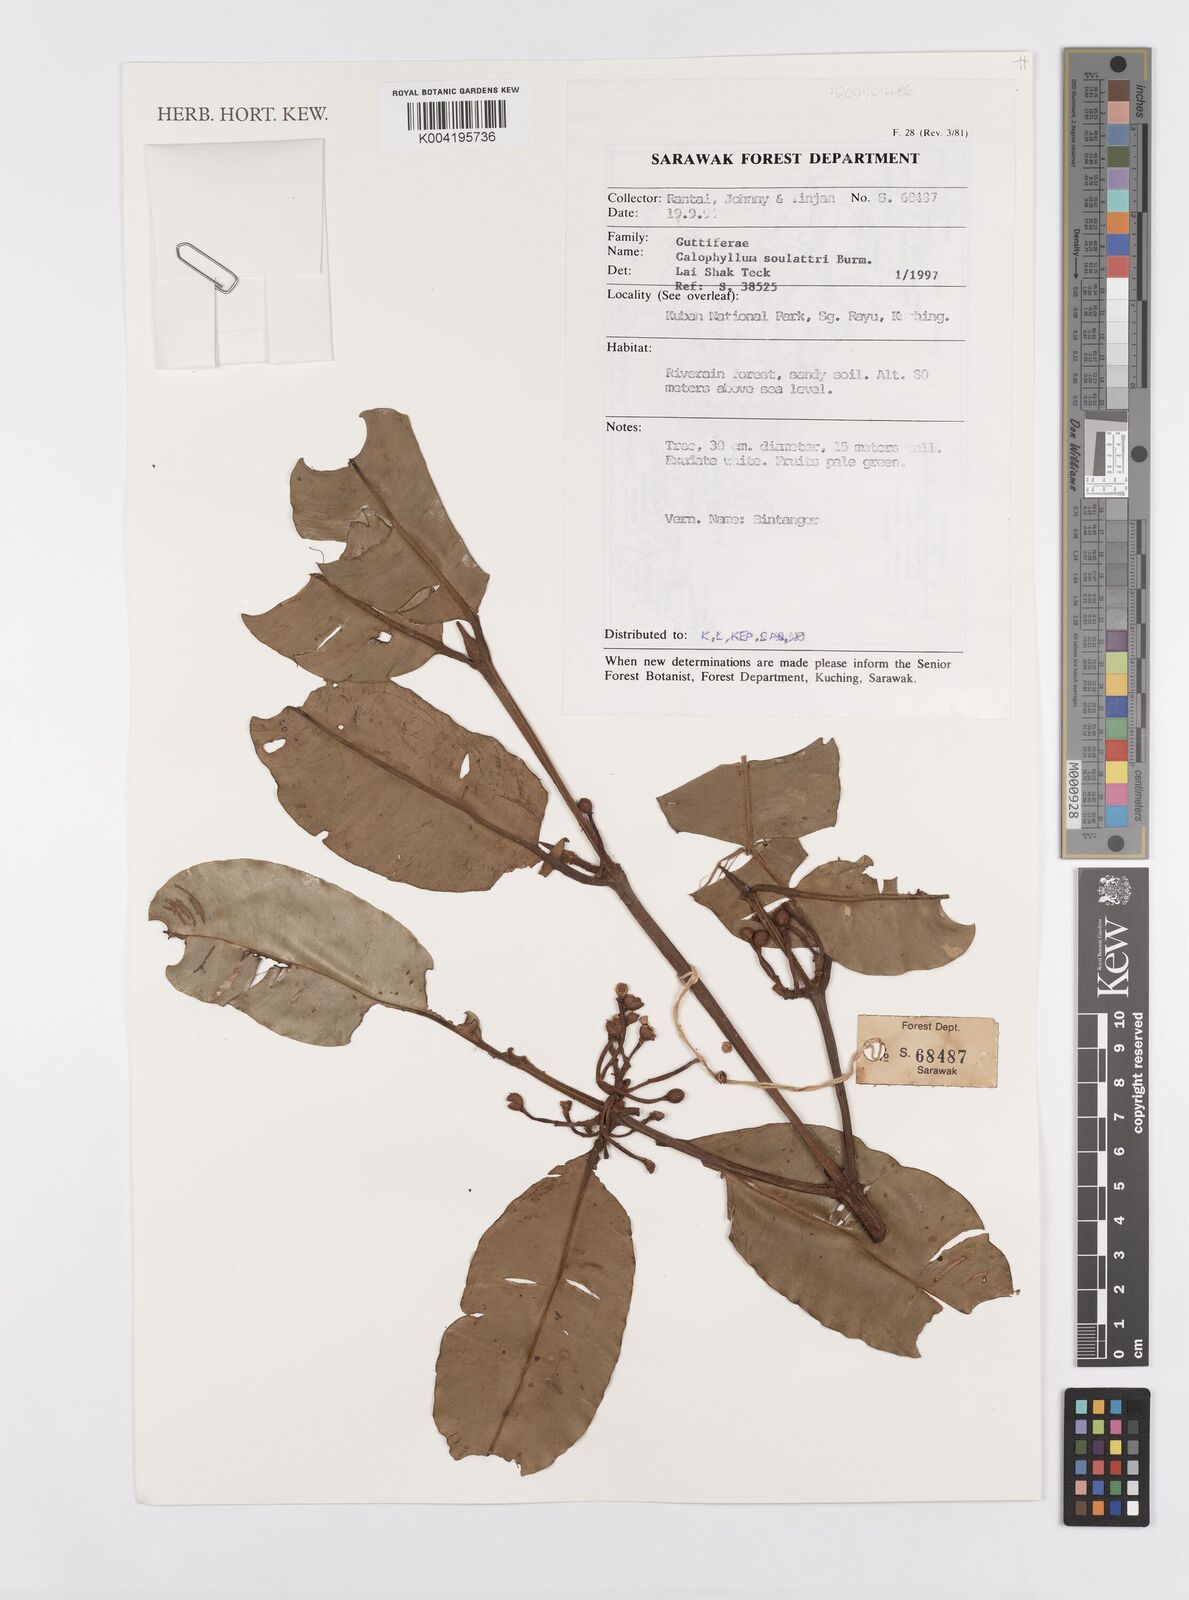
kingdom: Plantae
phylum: Tracheophyta
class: Magnoliopsida
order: Malpighiales
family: Calophyllaceae
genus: Calophyllum
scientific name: Calophyllum soulattri
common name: Bitangoor boonot
